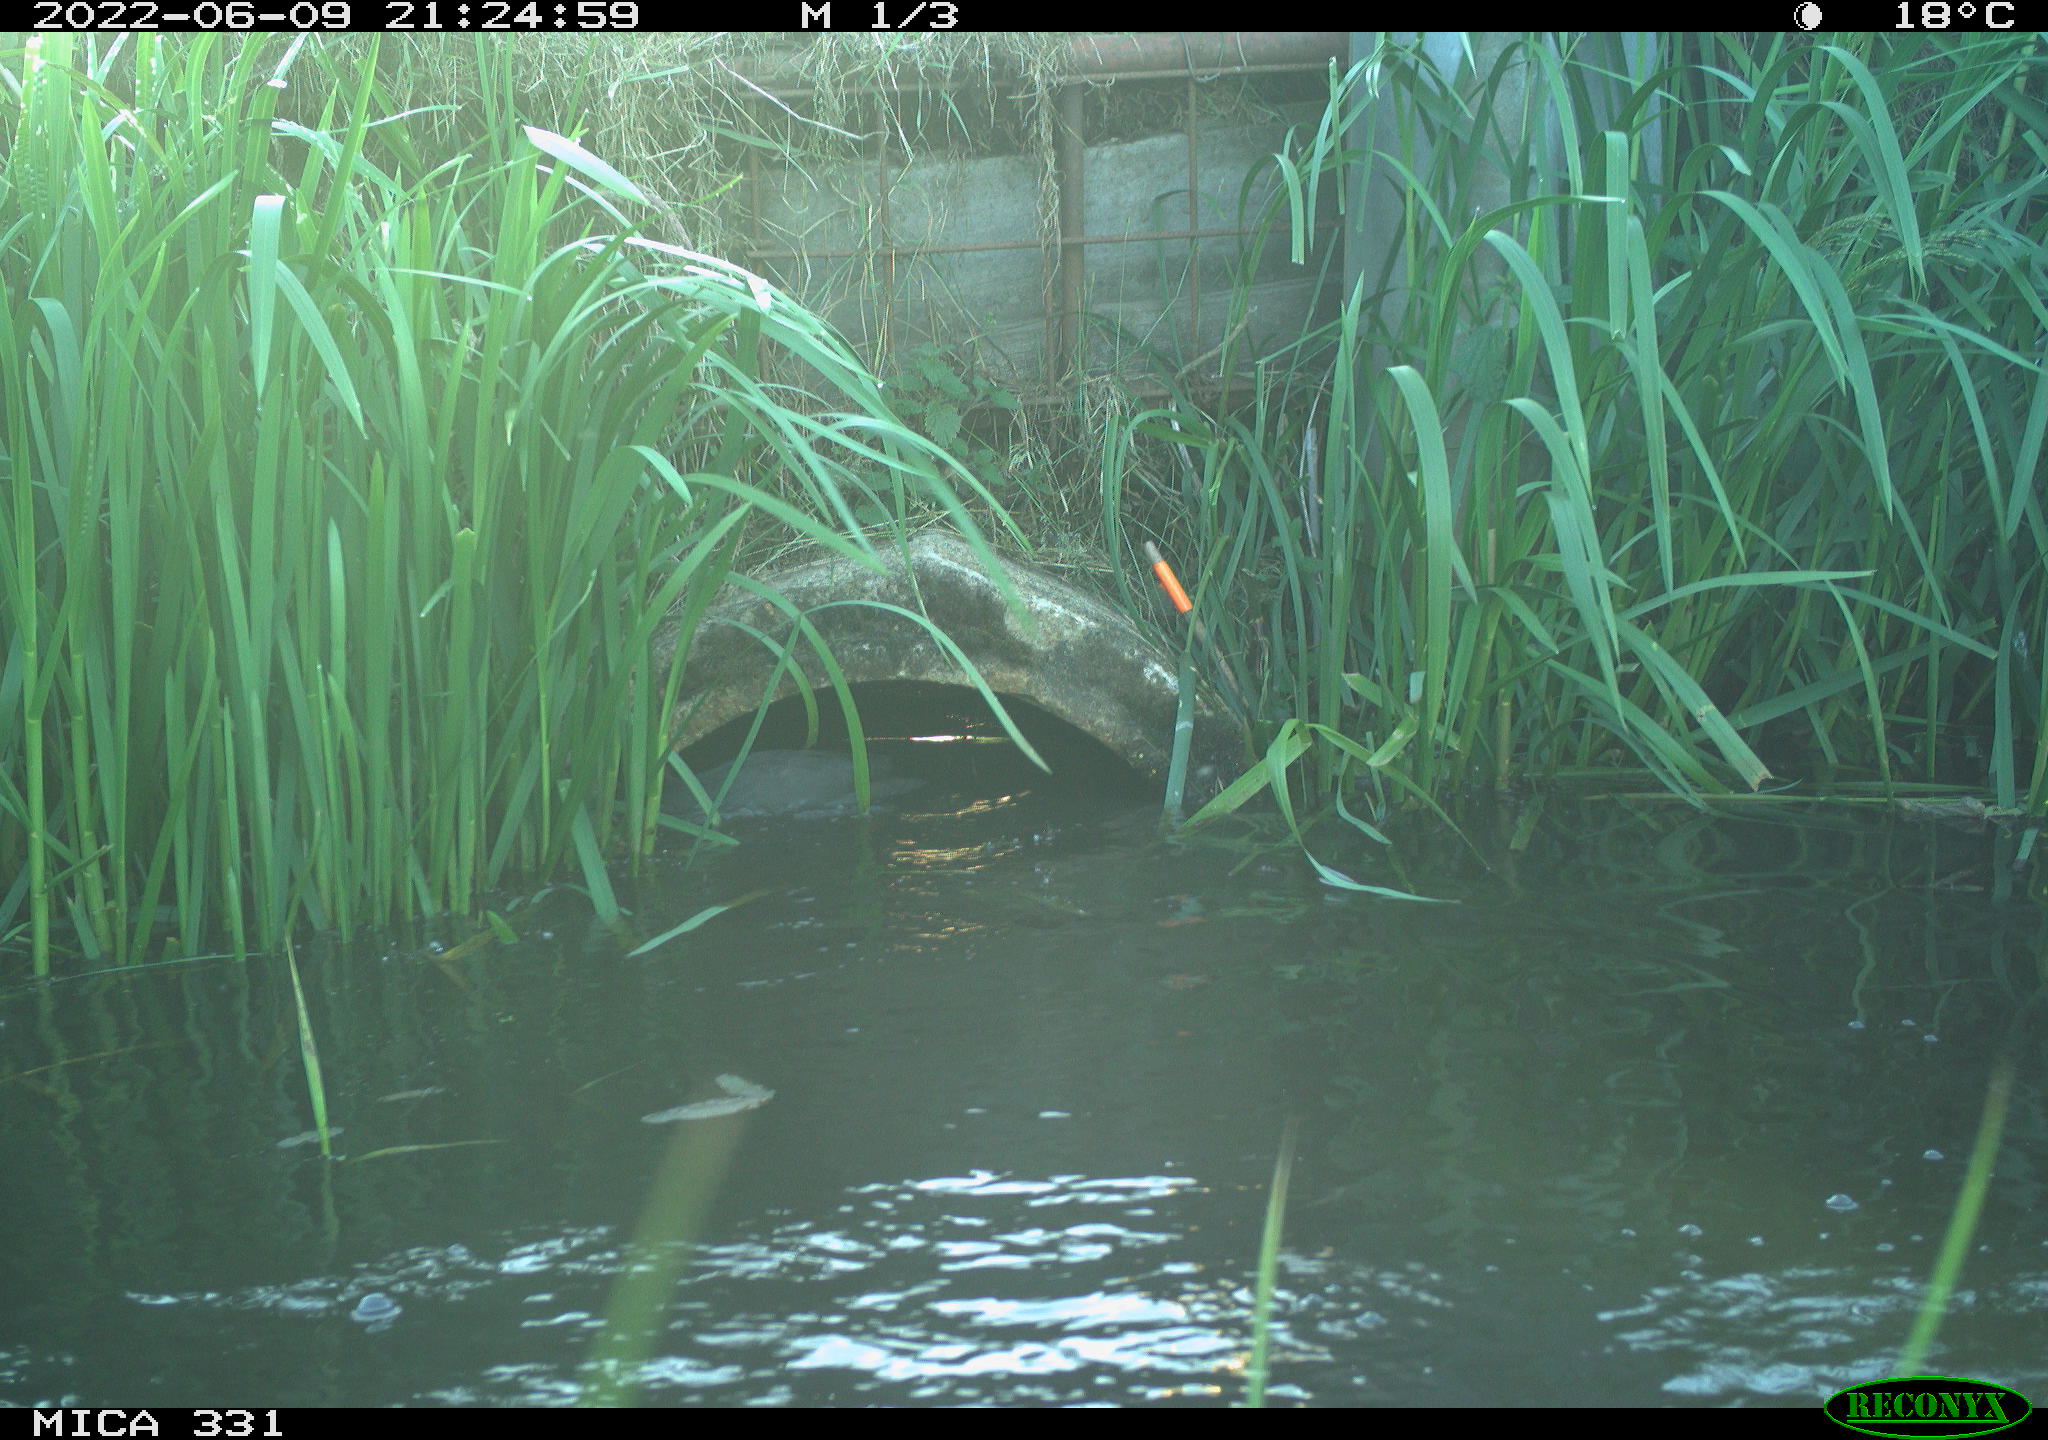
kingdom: Animalia
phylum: Chordata
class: Aves
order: Gruiformes
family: Rallidae
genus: Fulica
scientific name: Fulica atra
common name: Eurasian coot
